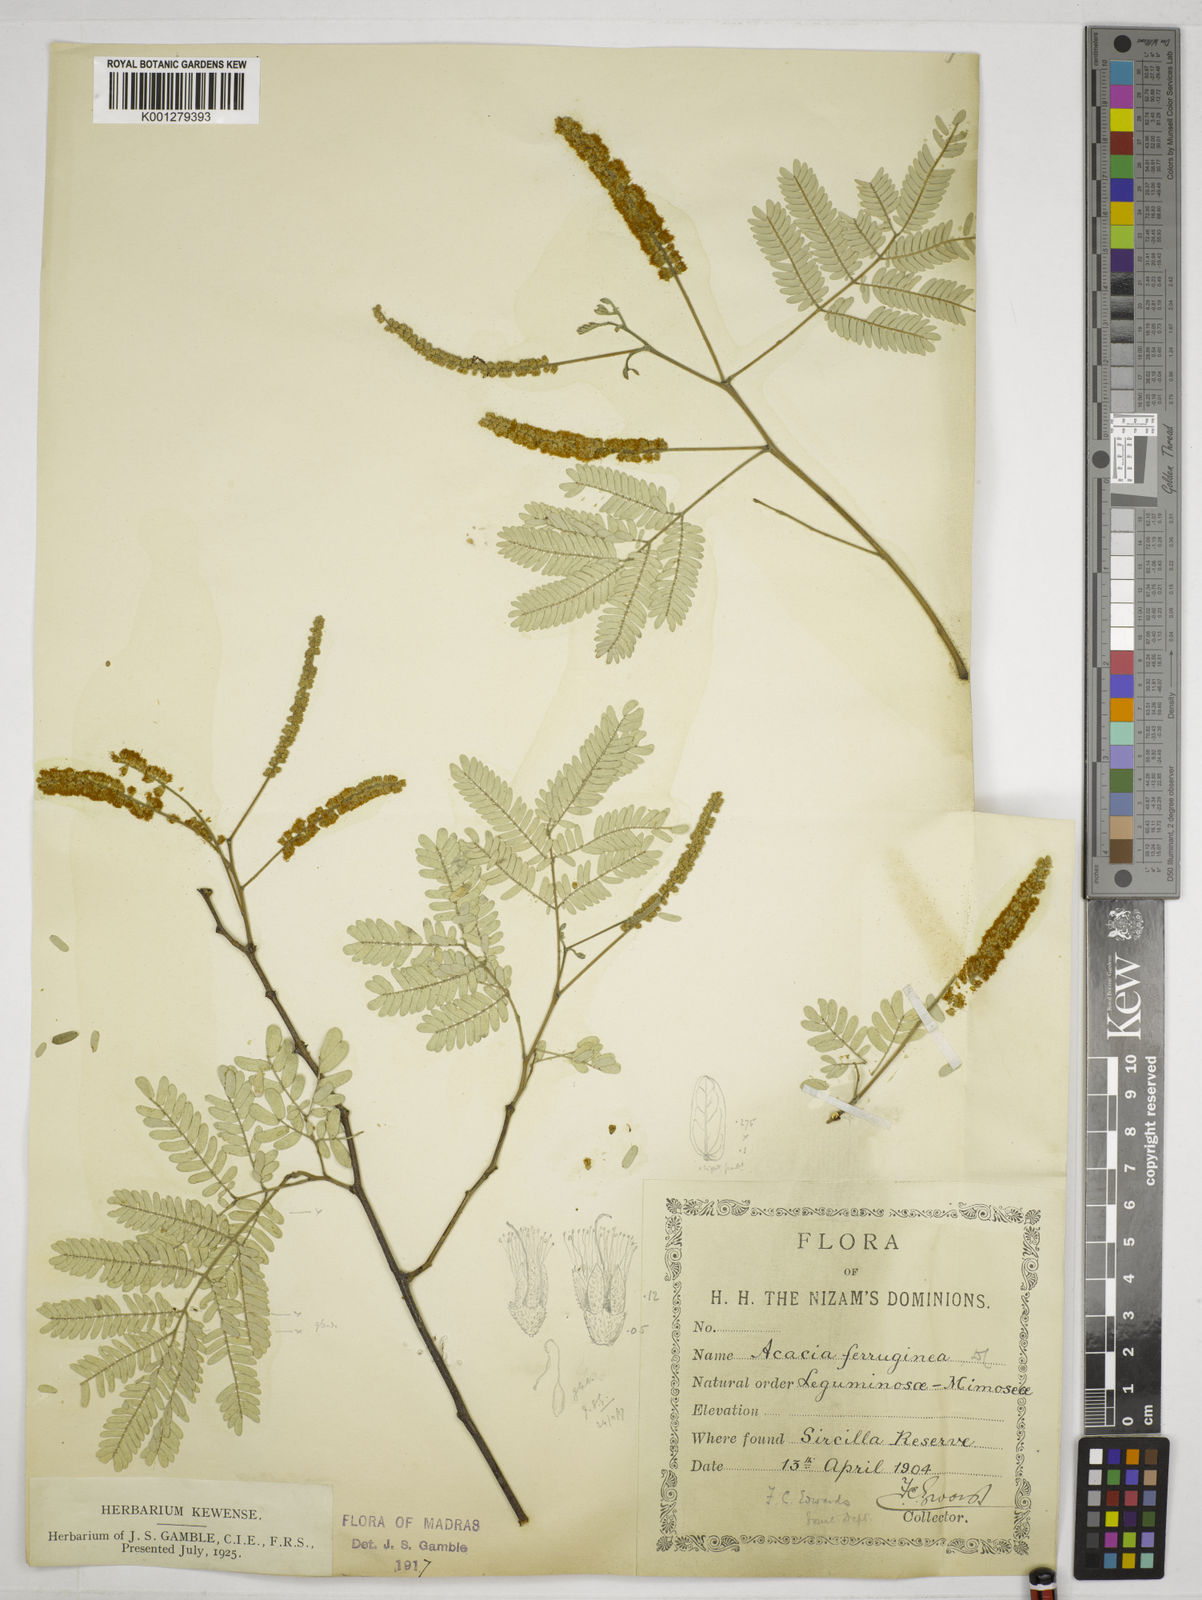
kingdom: Plantae
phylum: Tracheophyta
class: Magnoliopsida
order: Fabales
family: Fabaceae
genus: Senegalia
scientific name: Senegalia ferruginea
